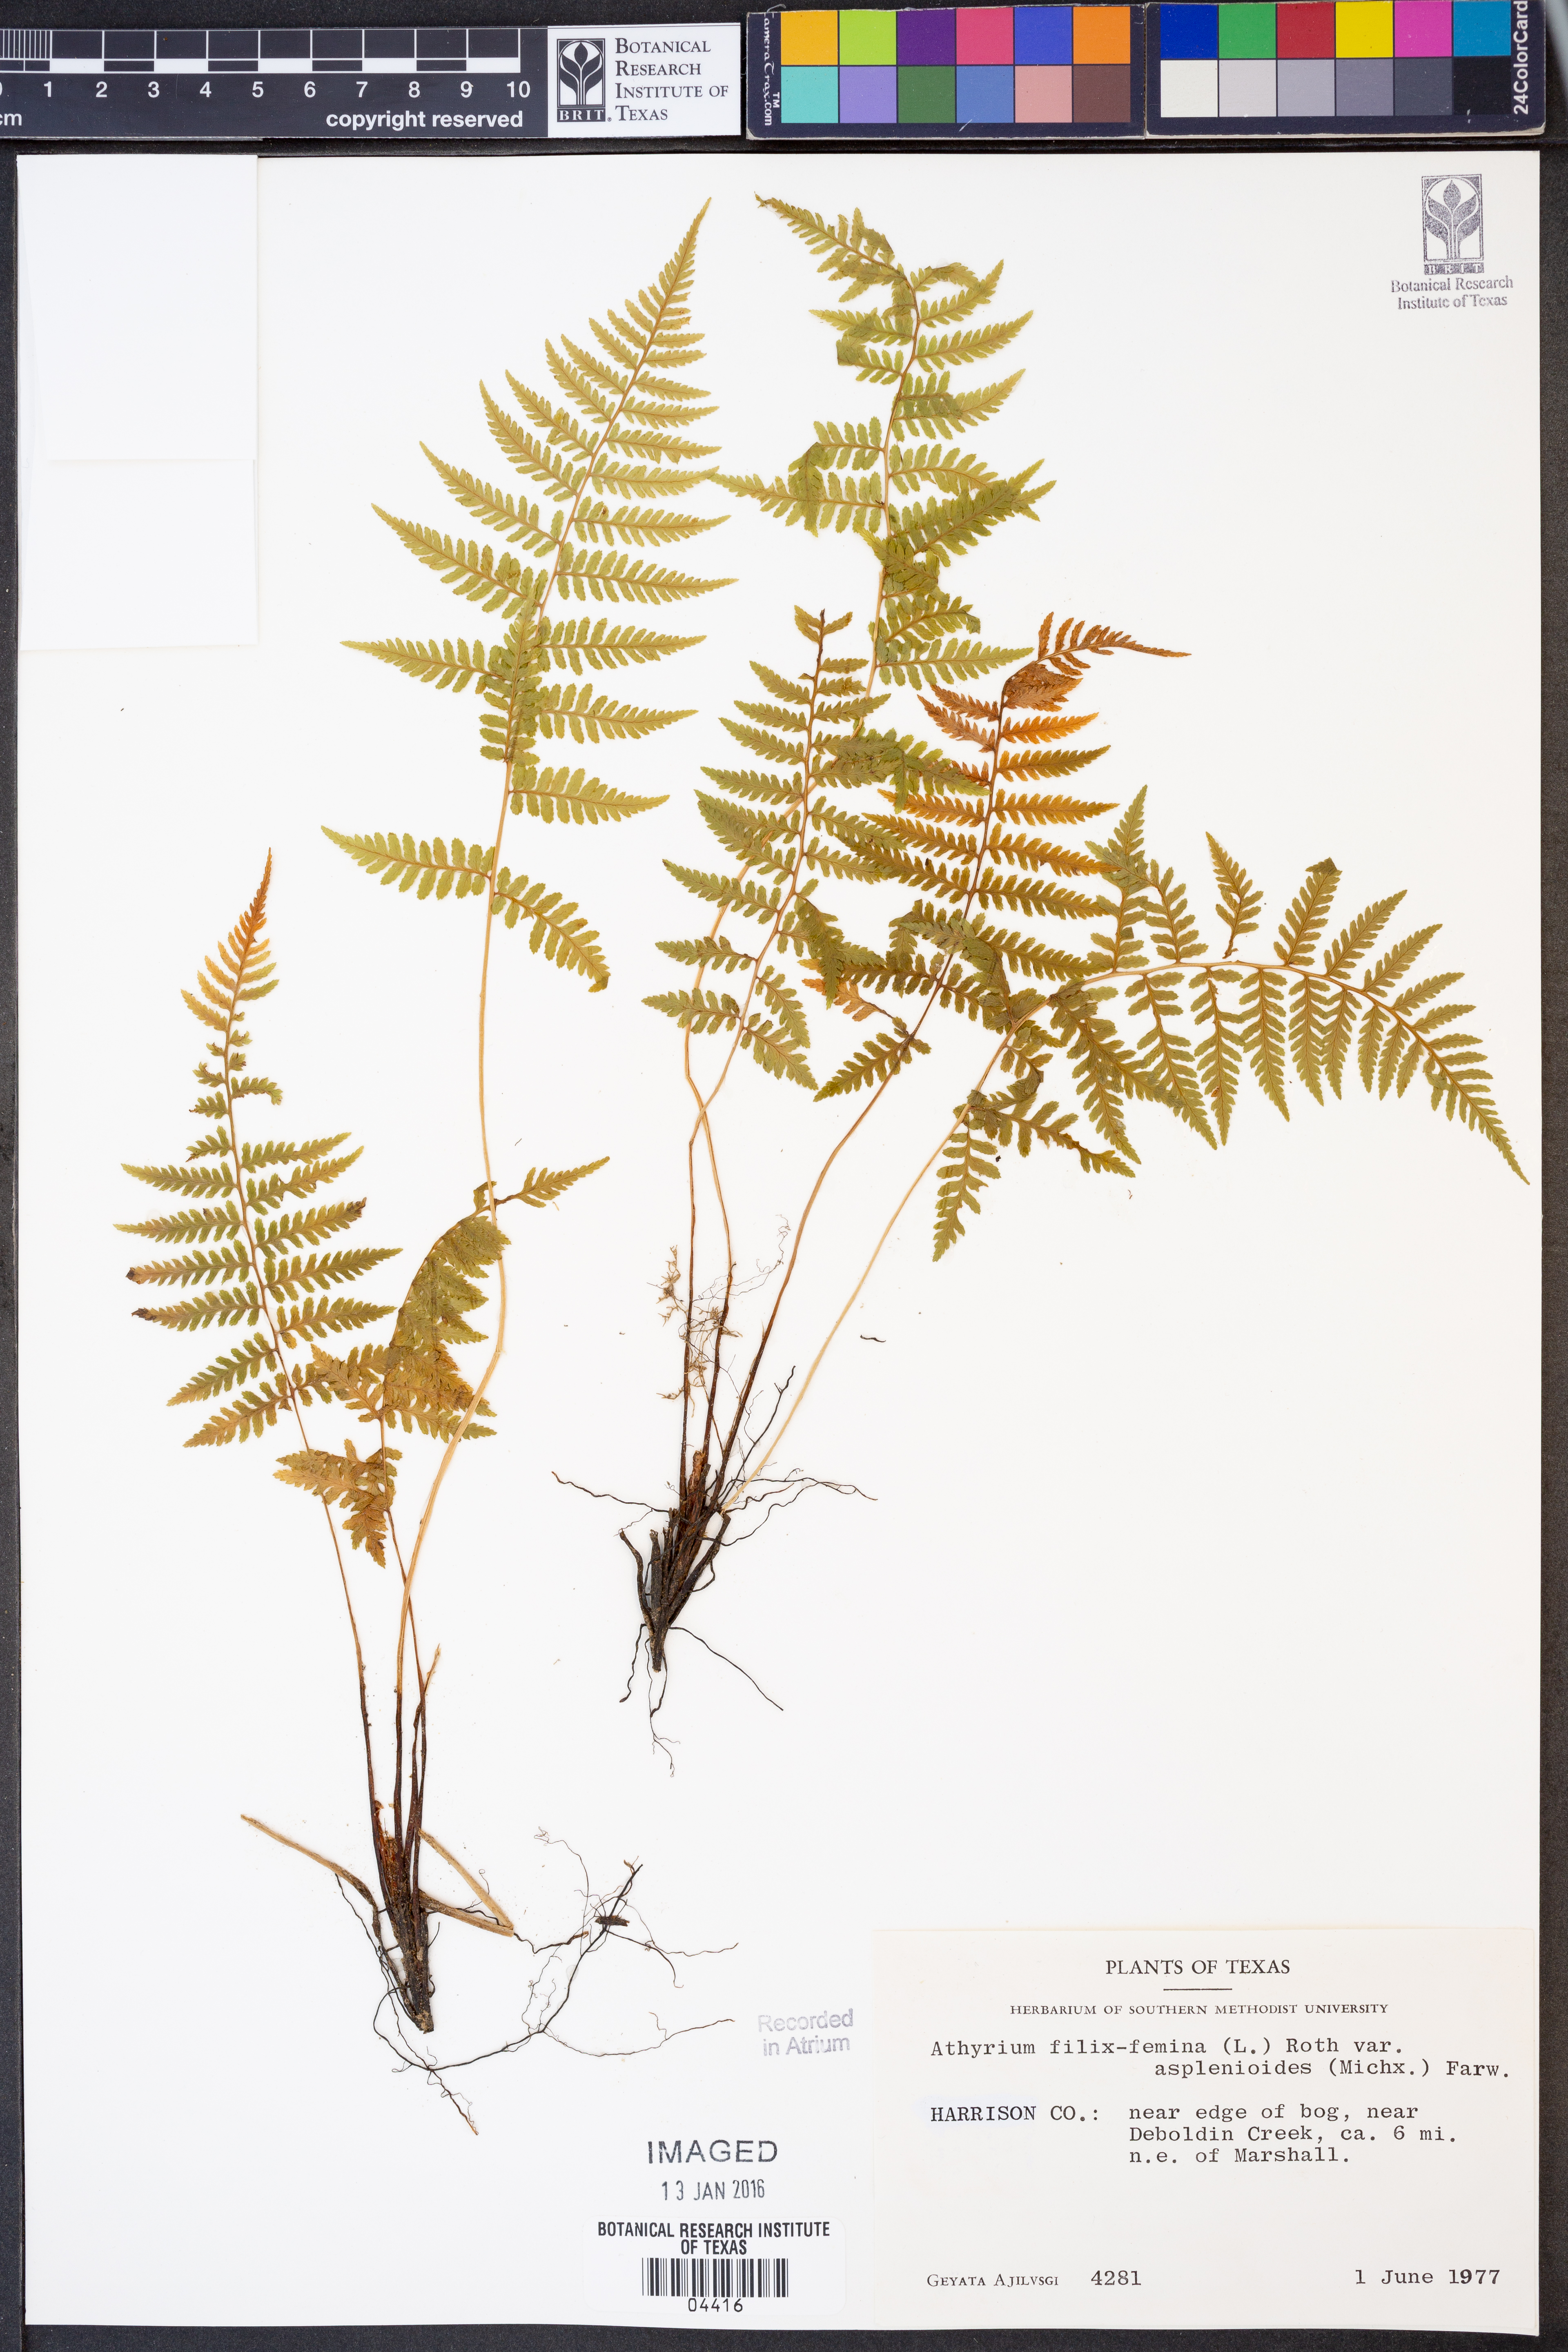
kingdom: Plantae
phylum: Tracheophyta
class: Polypodiopsida
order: Polypodiales
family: Athyriaceae
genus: Athyrium
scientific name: Athyrium asplenioides
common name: Southern lady fern
